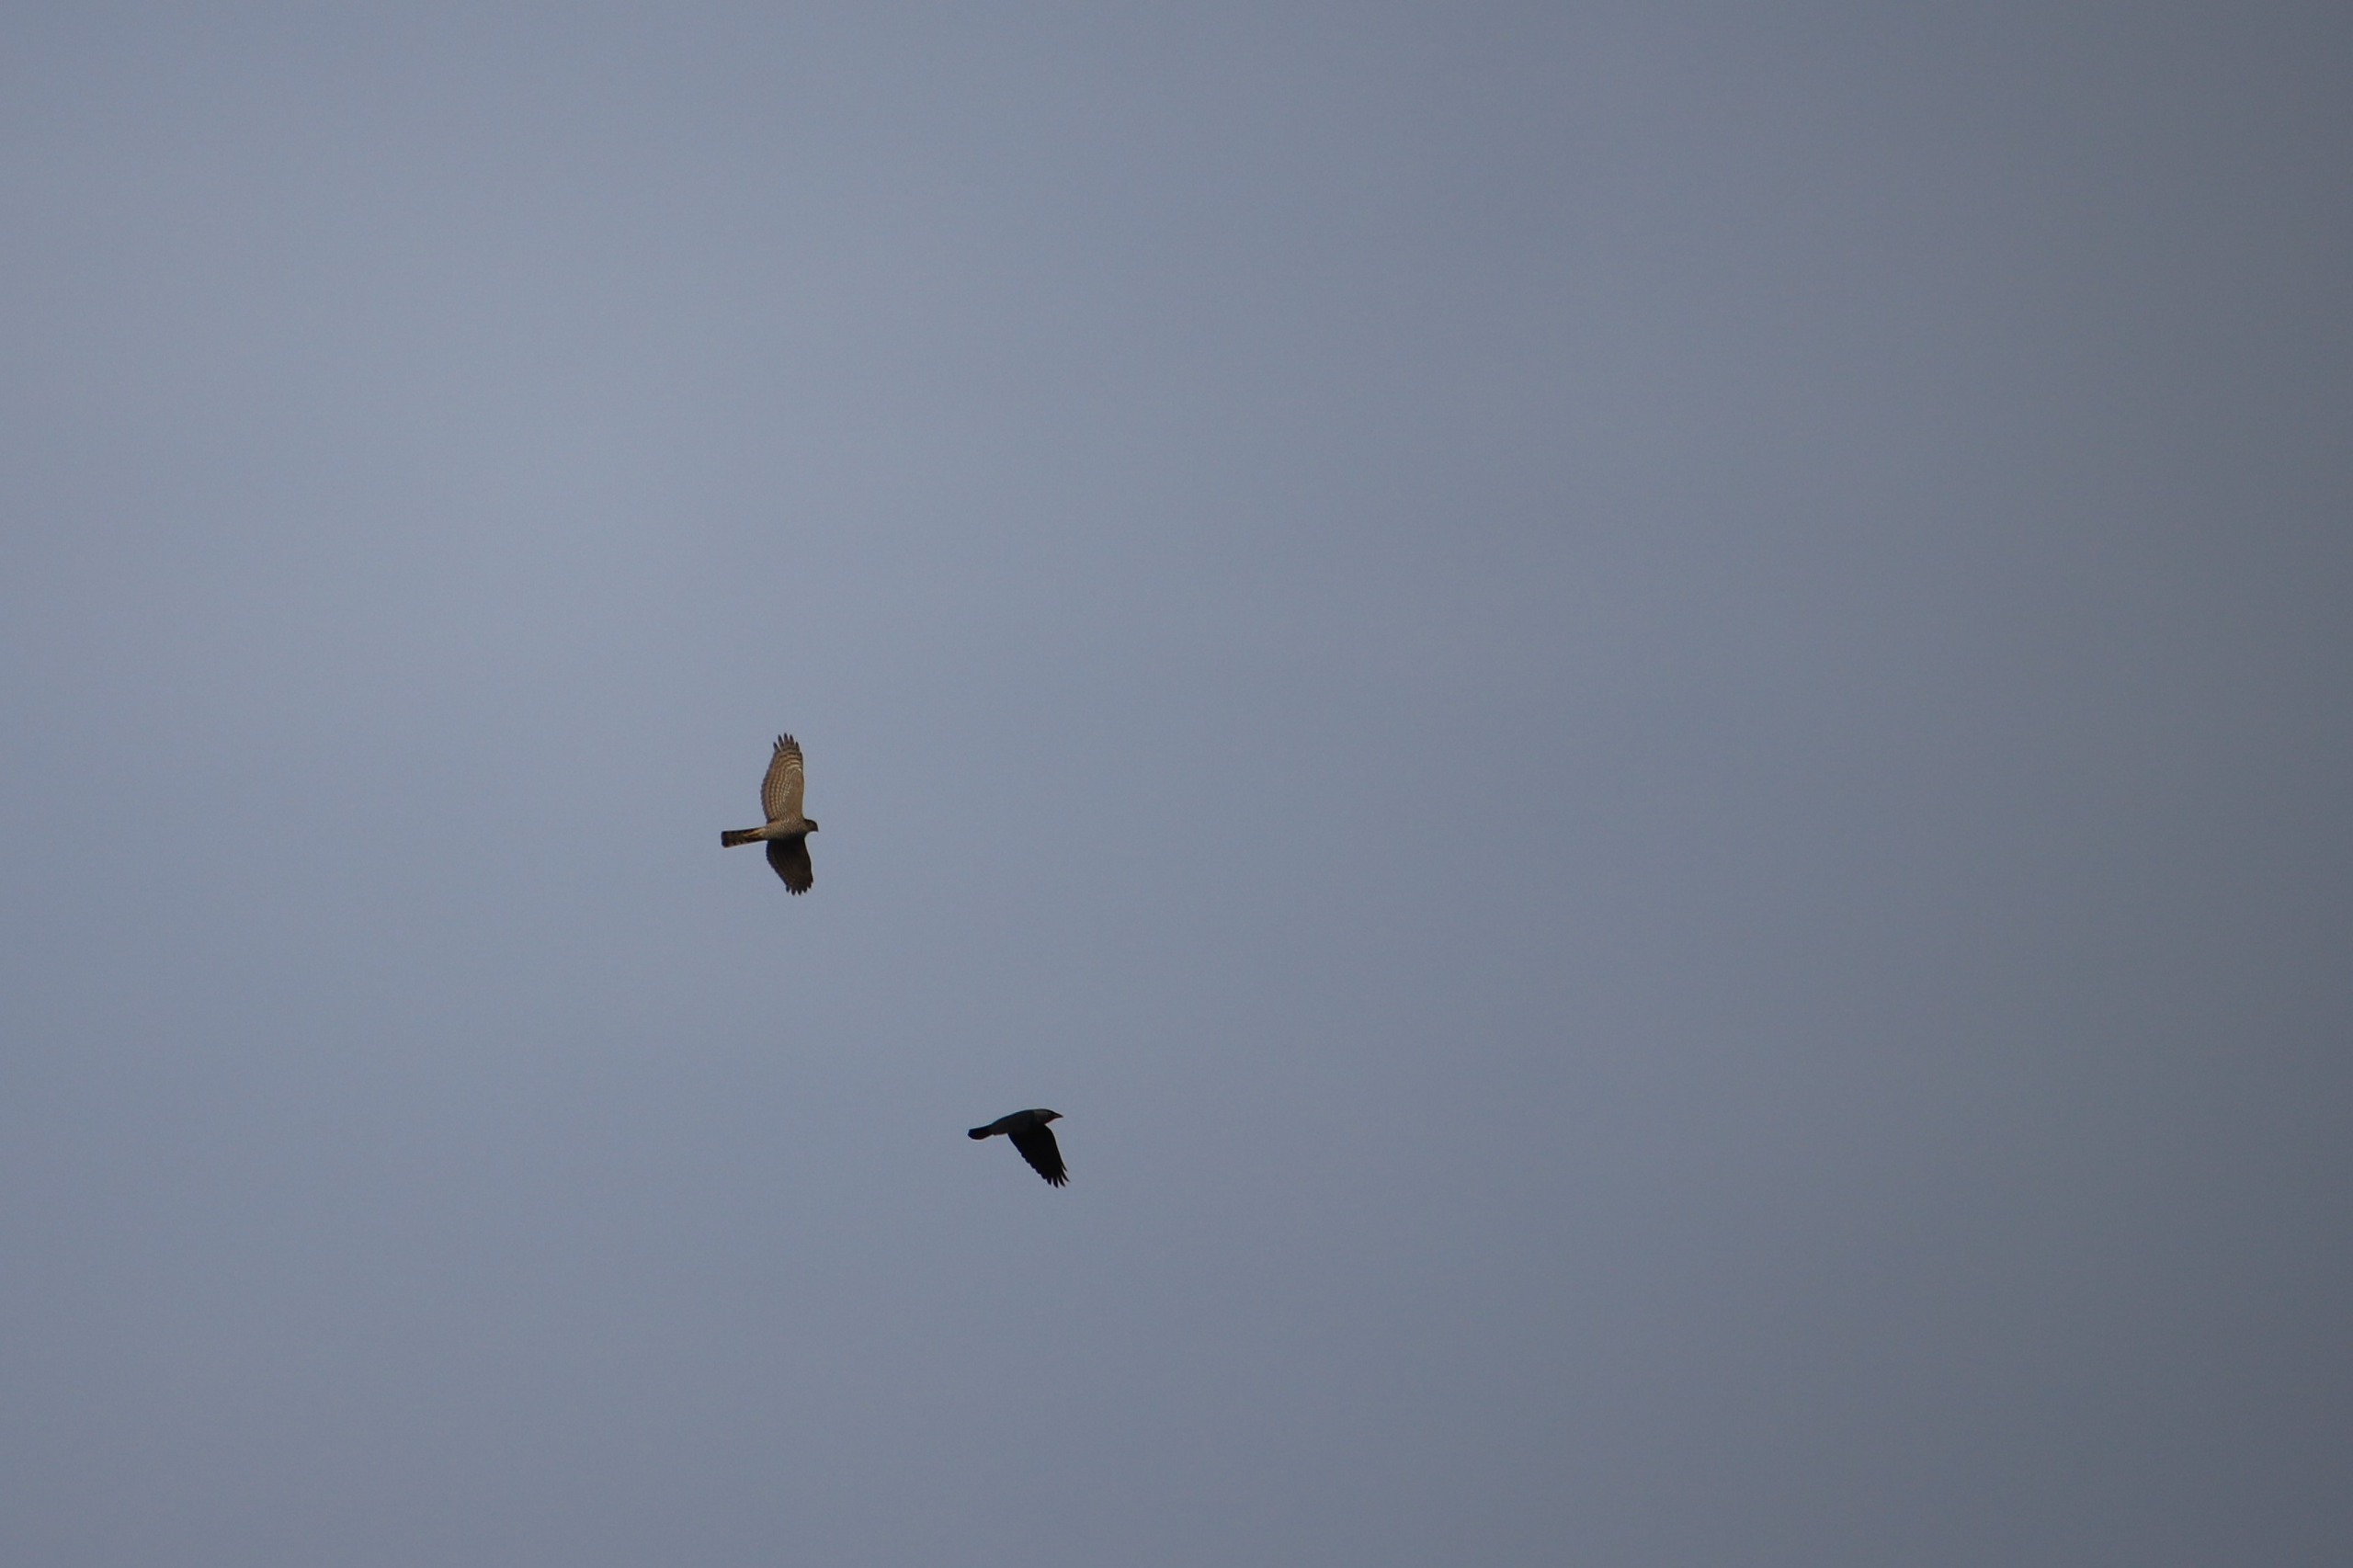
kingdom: Animalia
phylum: Chordata
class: Aves
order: Accipitriformes
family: Accipitridae
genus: Accipiter
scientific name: Accipiter nisus
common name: Spurvehøg
